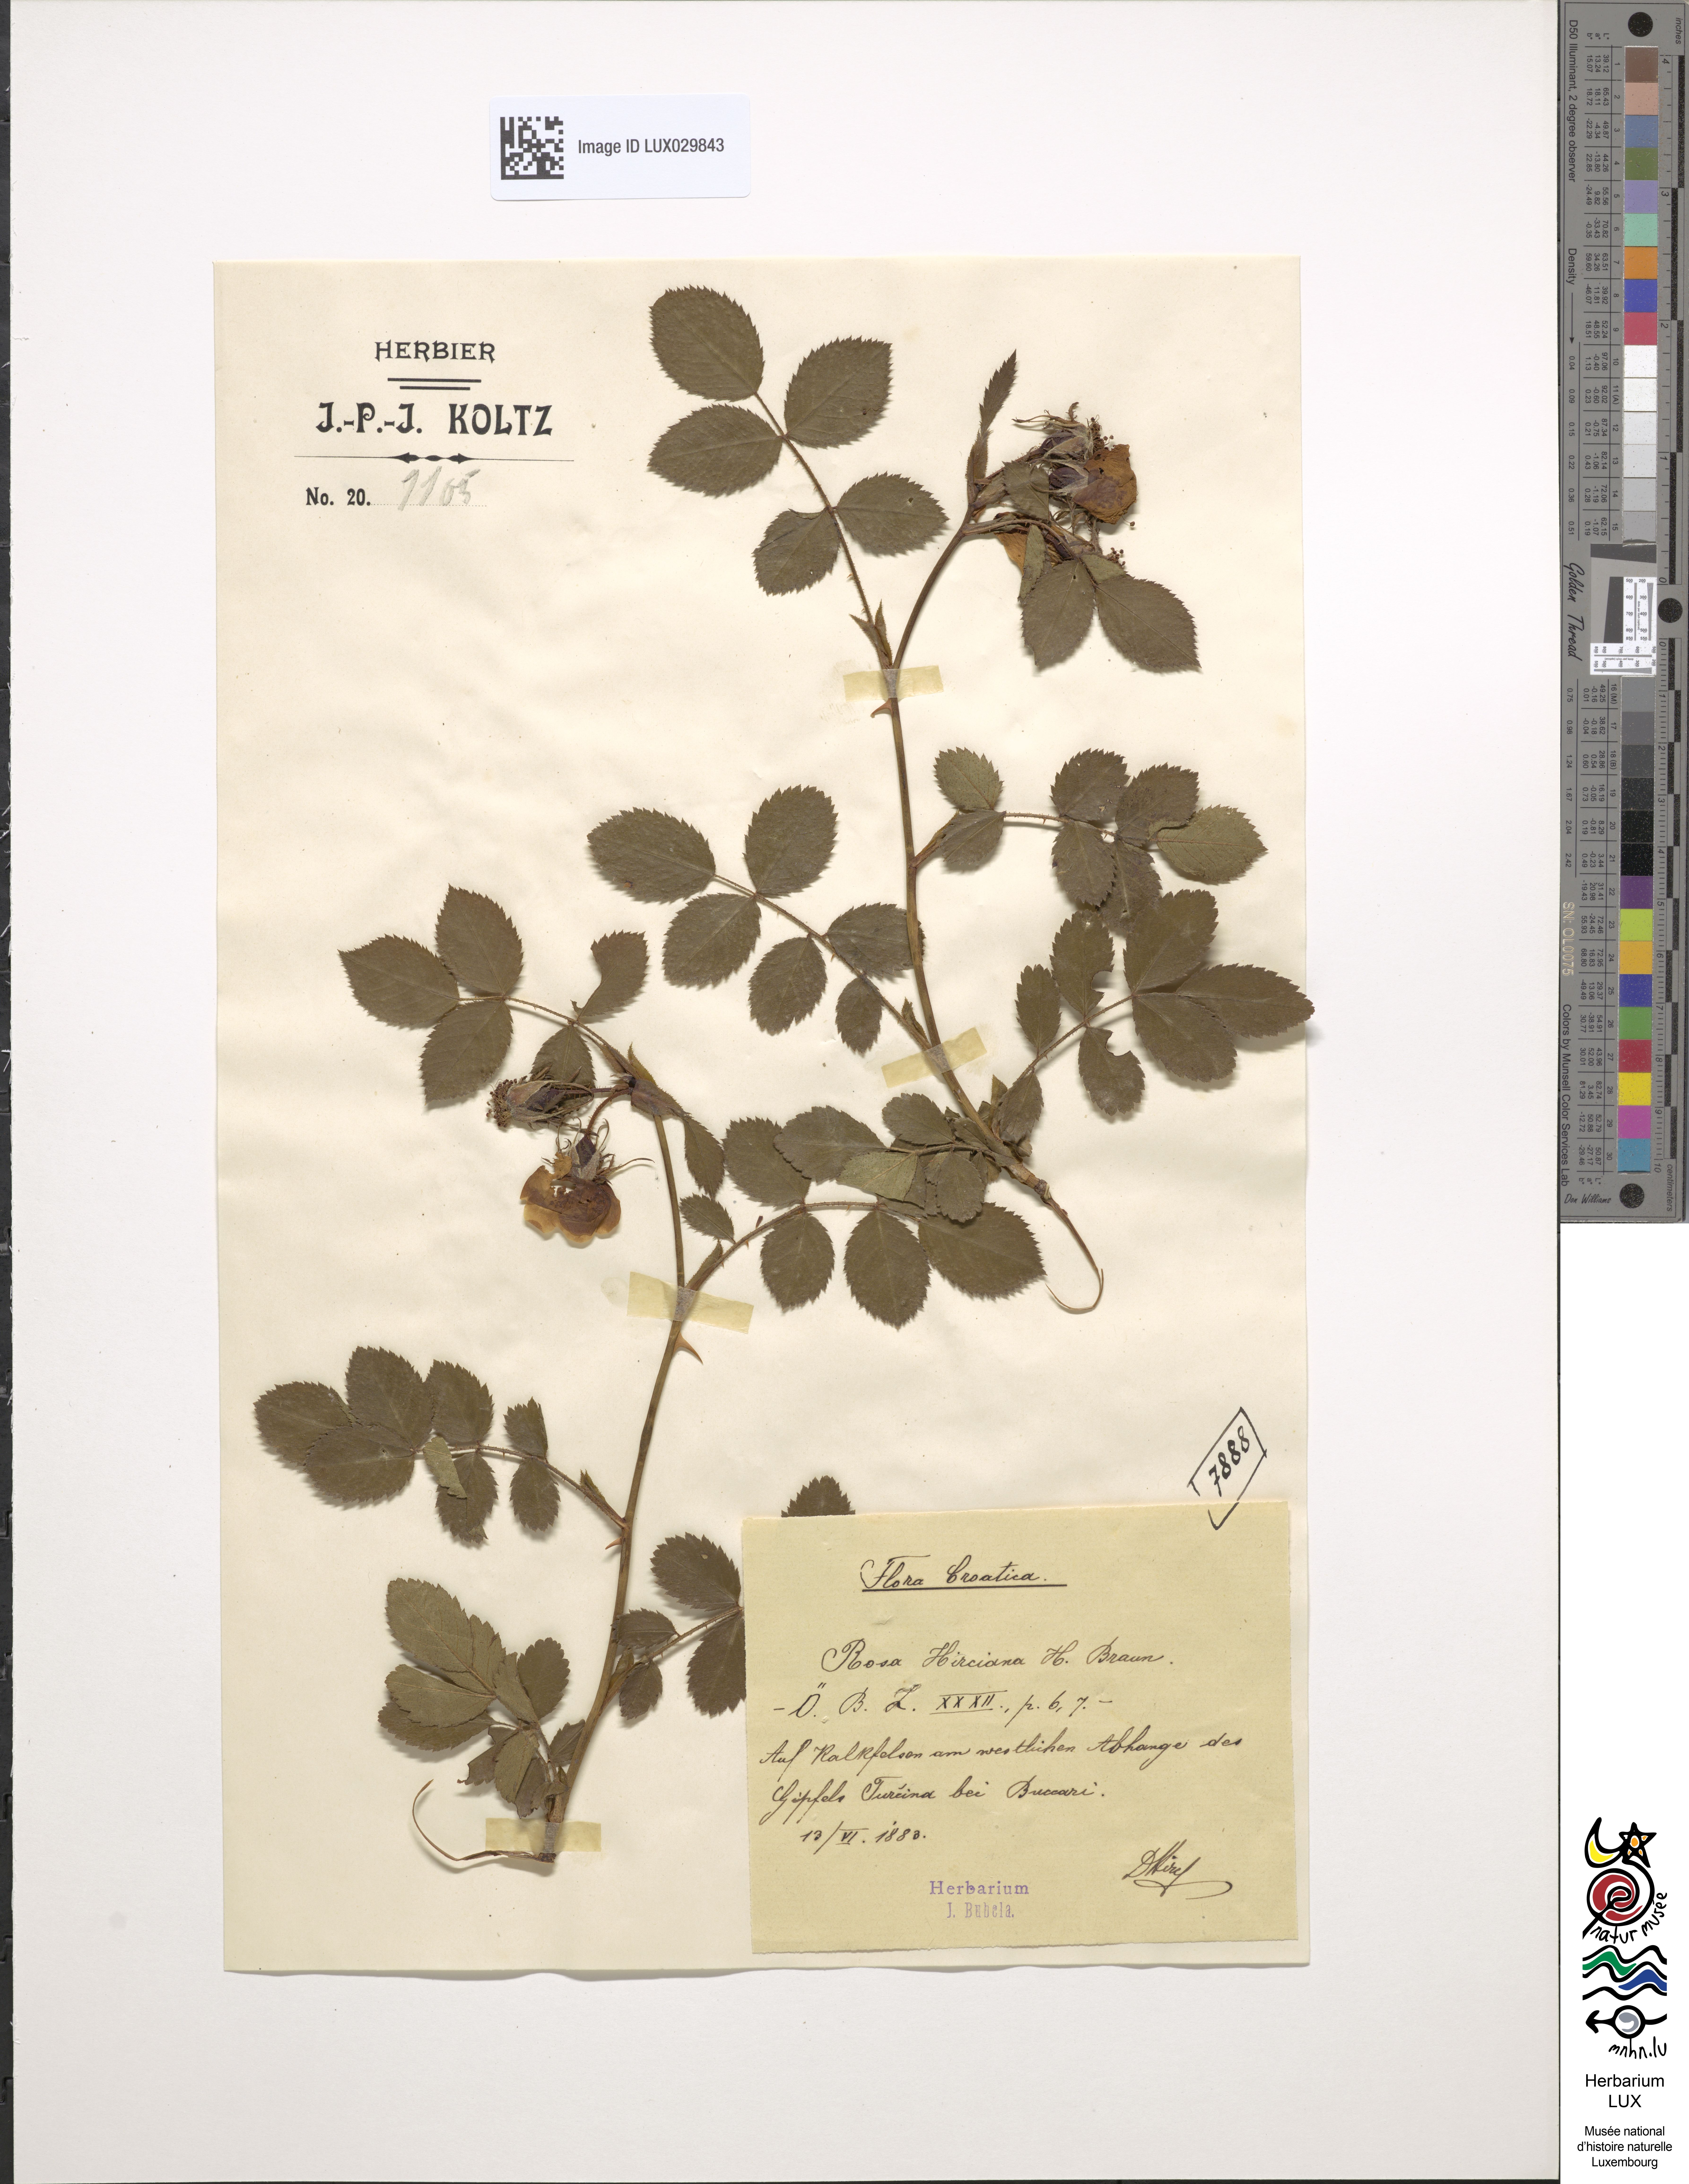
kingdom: Plantae
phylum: Tracheophyta
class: Magnoliopsida
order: Rosales
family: Rosaceae
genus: Rosa
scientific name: Rosa micrantha
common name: Small-flowered sweet-briar
